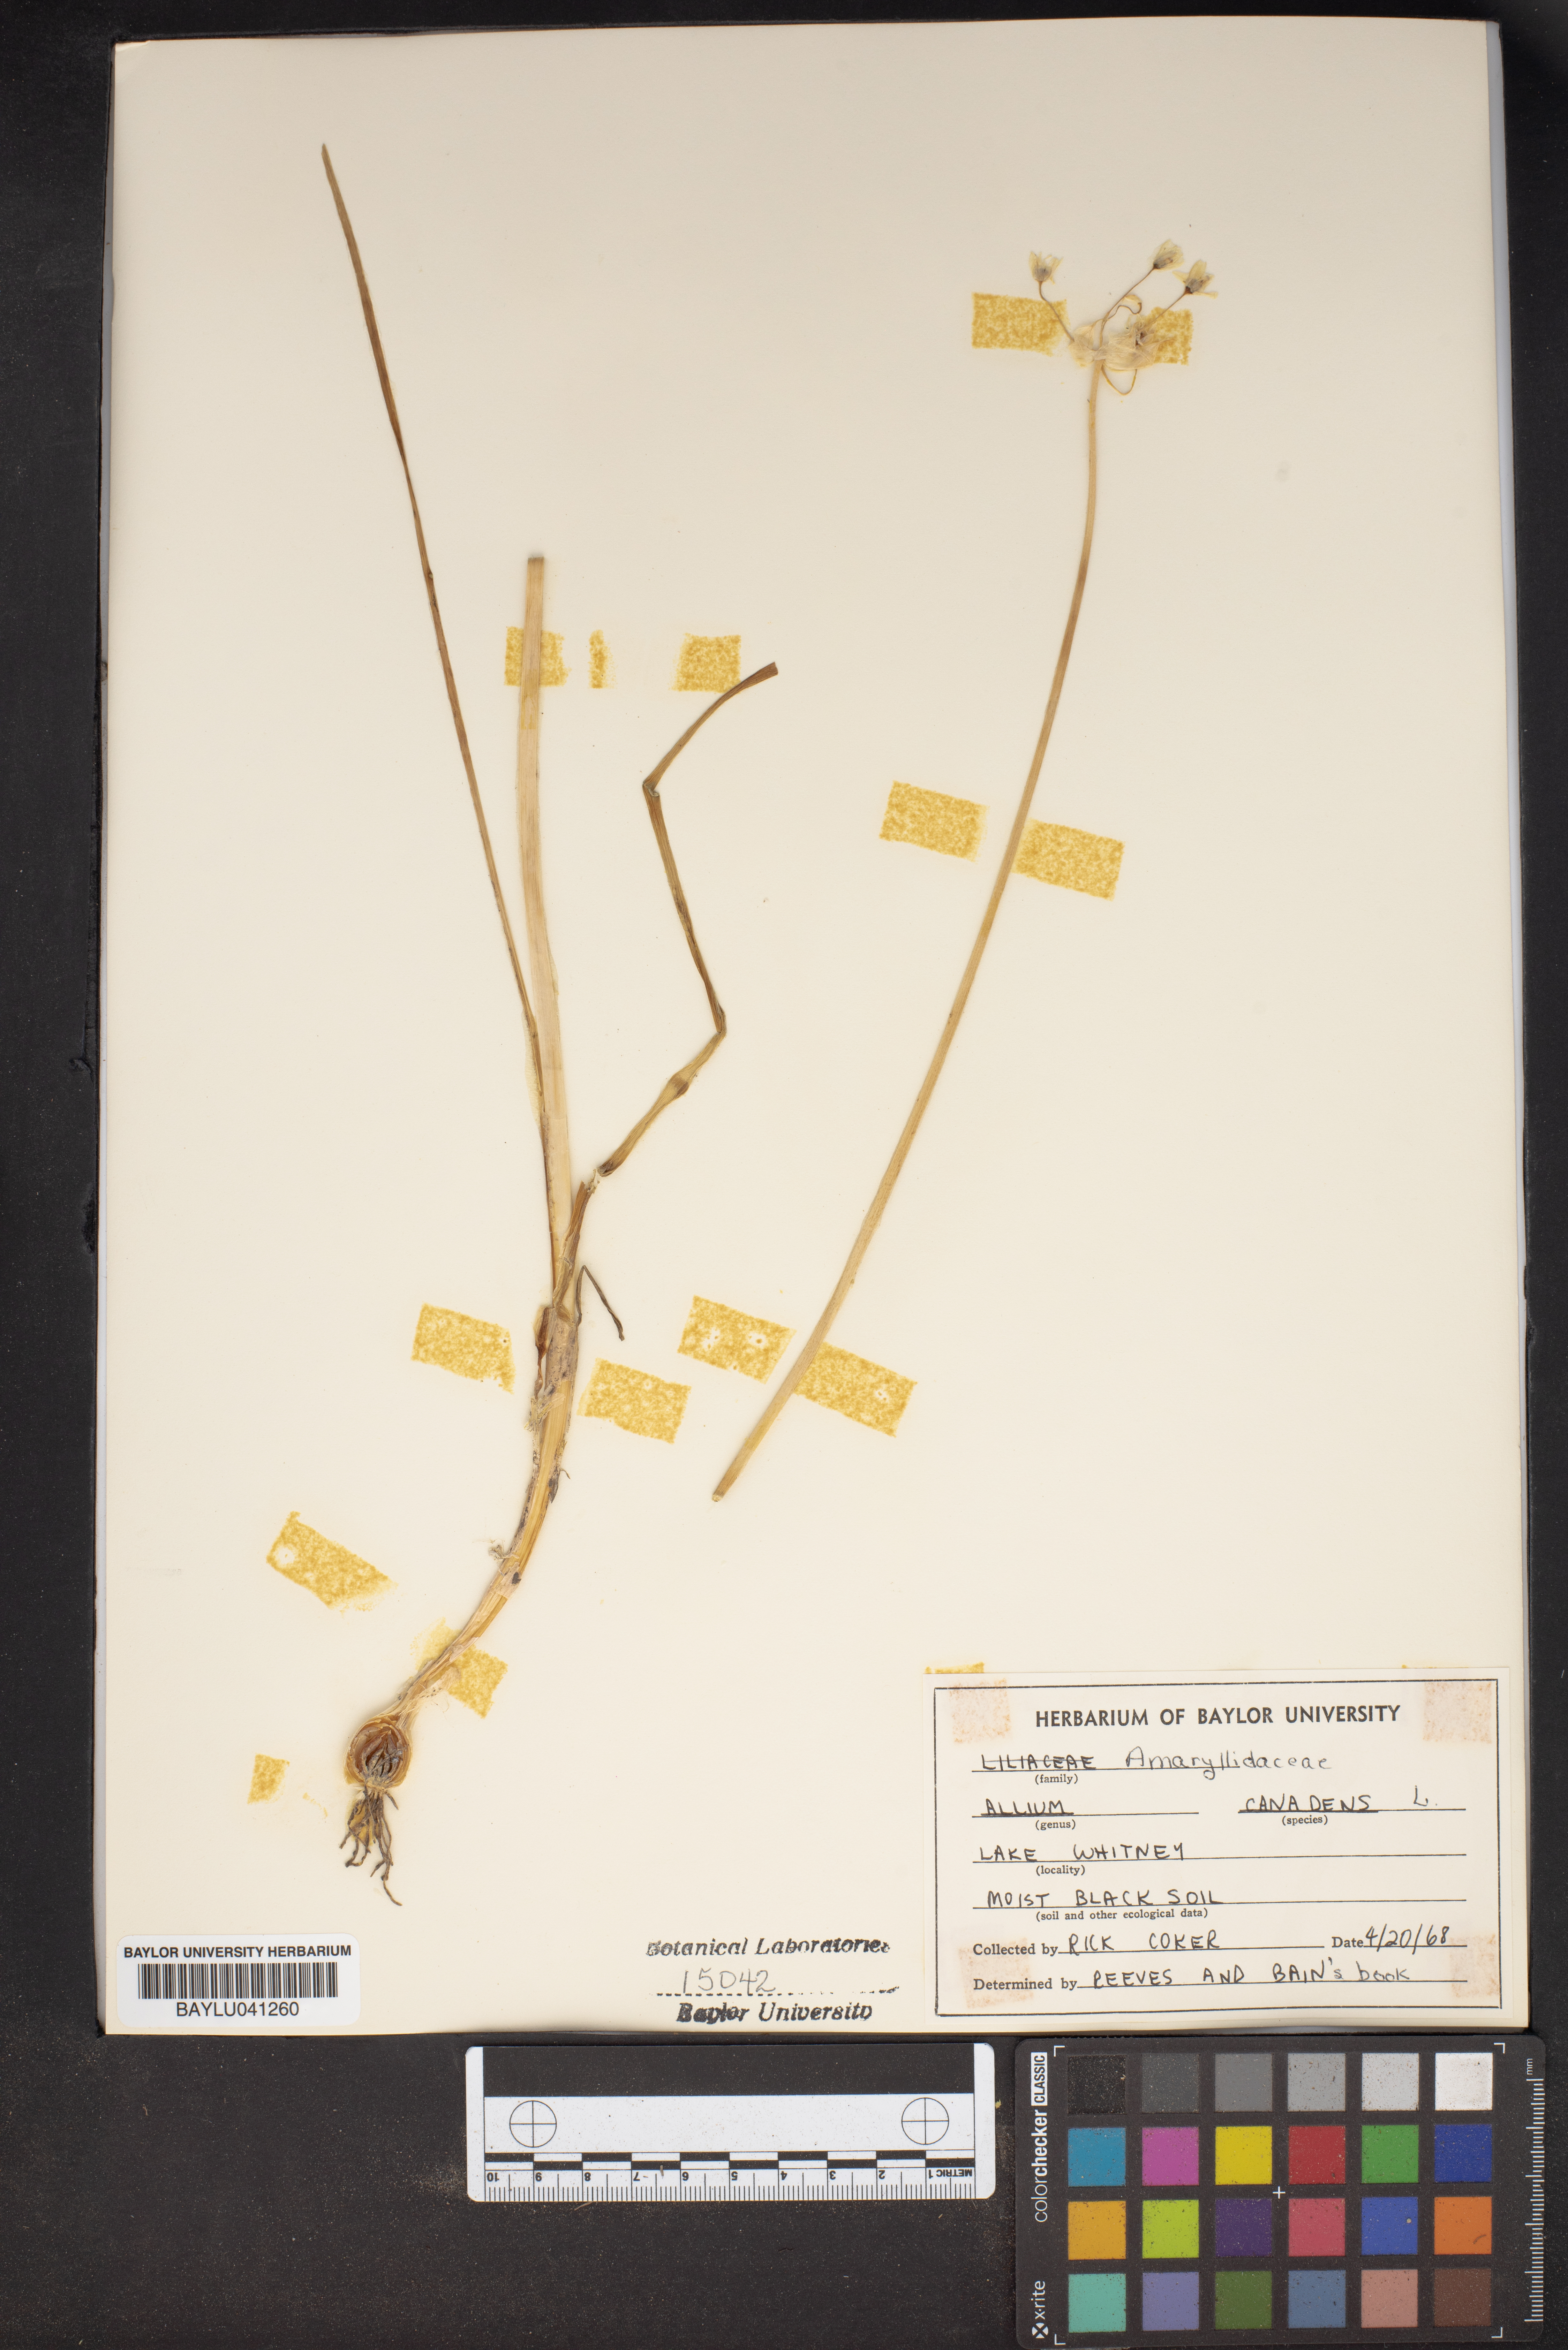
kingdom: Plantae
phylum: Tracheophyta
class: Liliopsida
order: Asparagales
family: Amaryllidaceae
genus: Allium
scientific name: Allium canadense
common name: Meadow garlic
